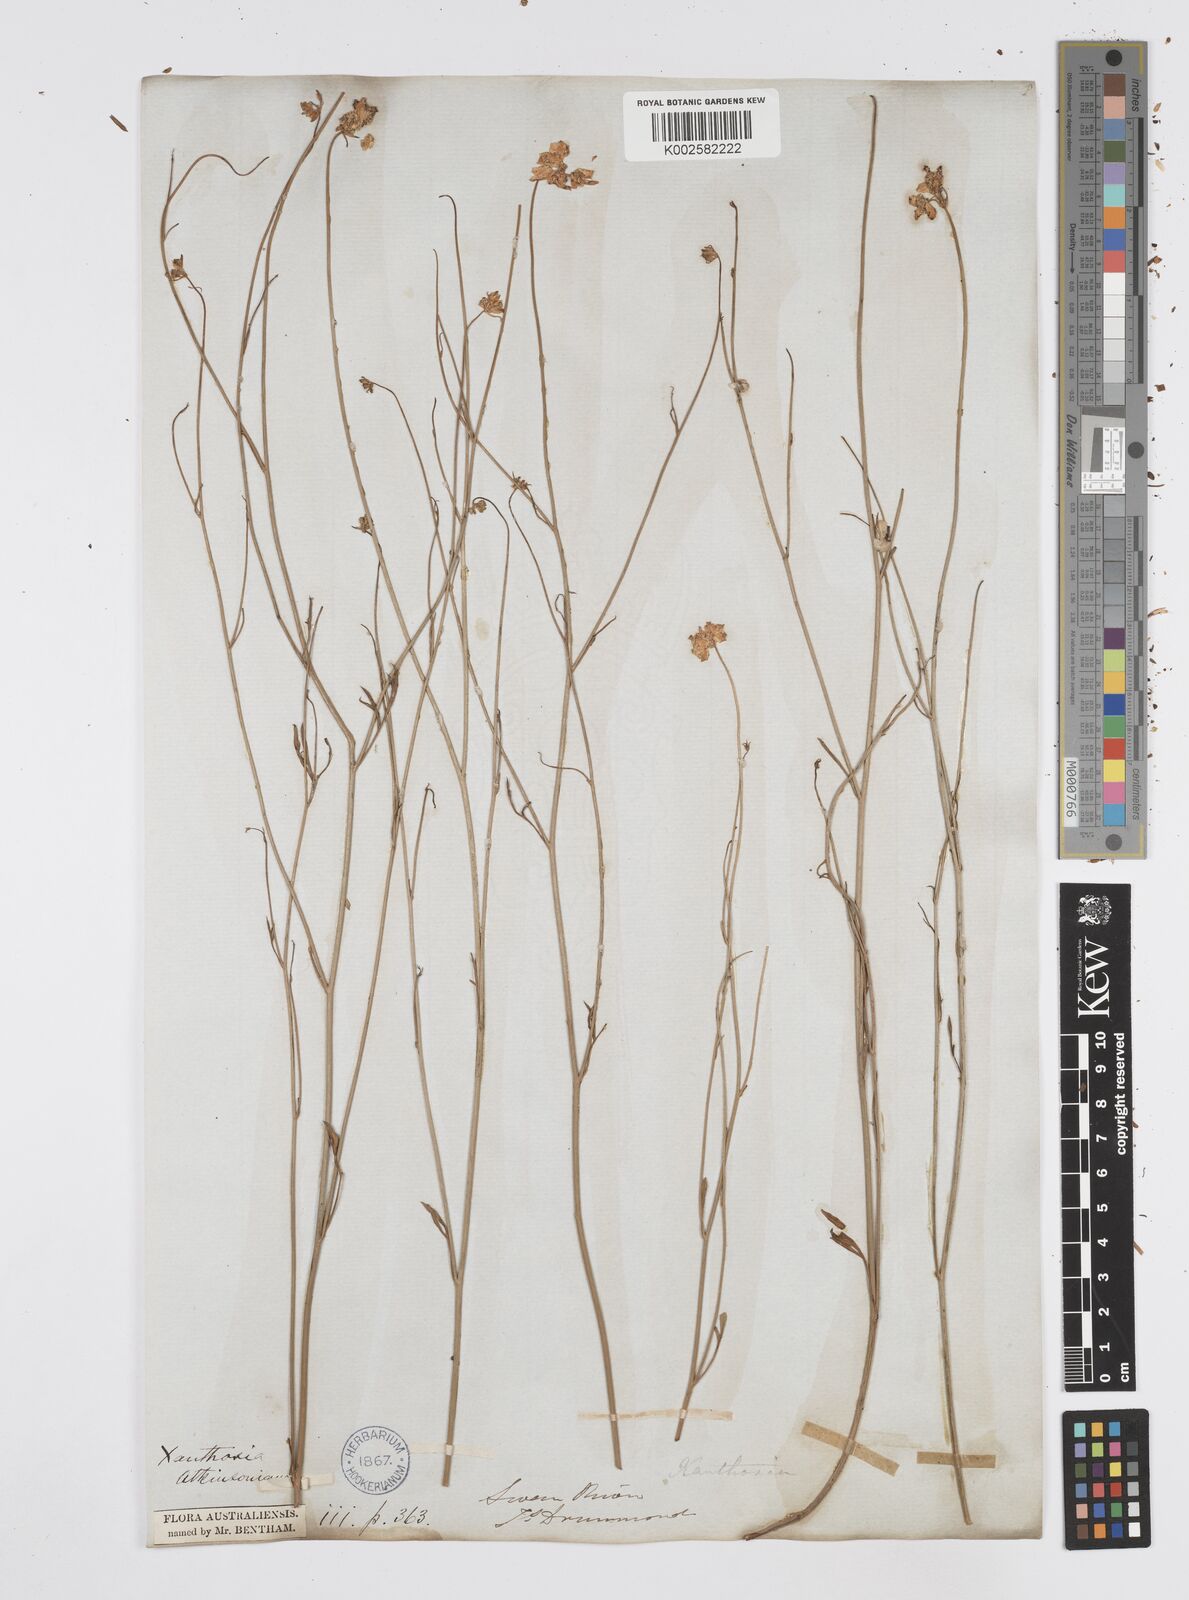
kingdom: Plantae
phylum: Tracheophyta
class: Magnoliopsida
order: Apiales
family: Apiaceae
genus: Xanthosia
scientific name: Xanthosia atkinsoniana
